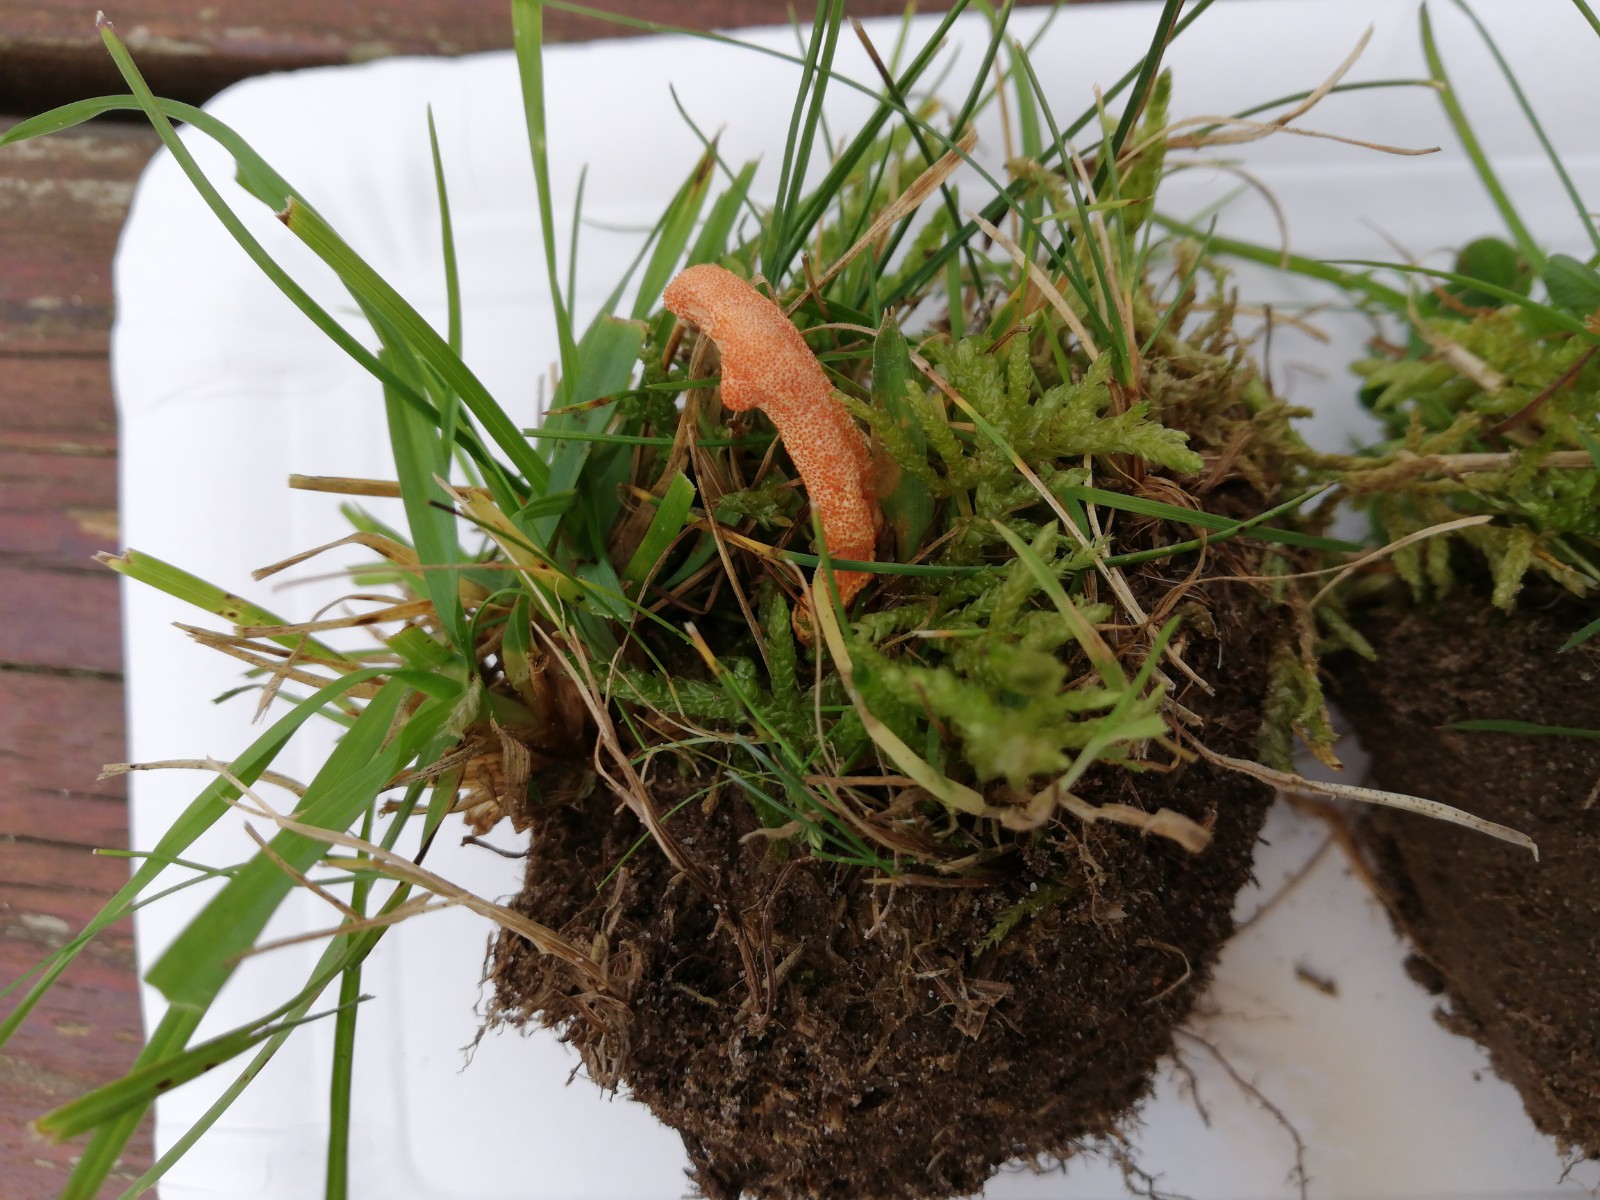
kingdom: Fungi
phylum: Ascomycota
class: Sordariomycetes
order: Hypocreales
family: Cordycipitaceae
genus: Cordyceps
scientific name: Cordyceps militaris
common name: puppe-snyltekølle
